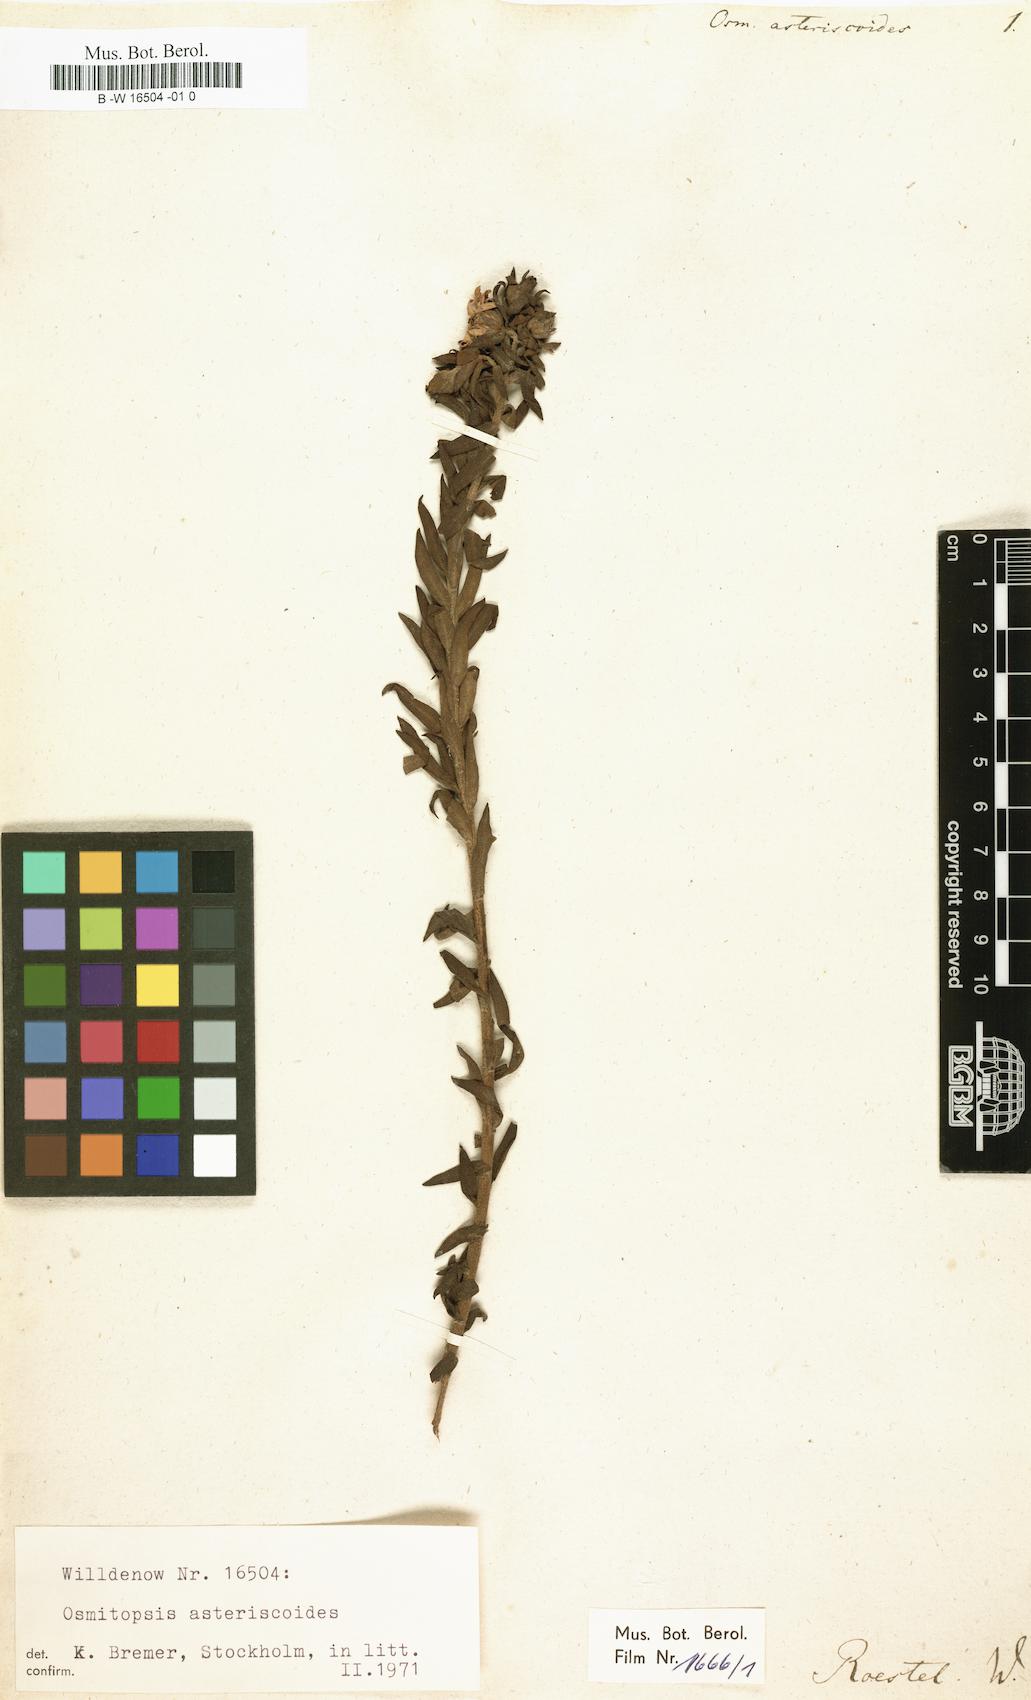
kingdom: Plantae
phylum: Tracheophyta
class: Magnoliopsida
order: Asterales
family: Asteraceae
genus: Osmitopsis
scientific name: Osmitopsis asteriscoides
